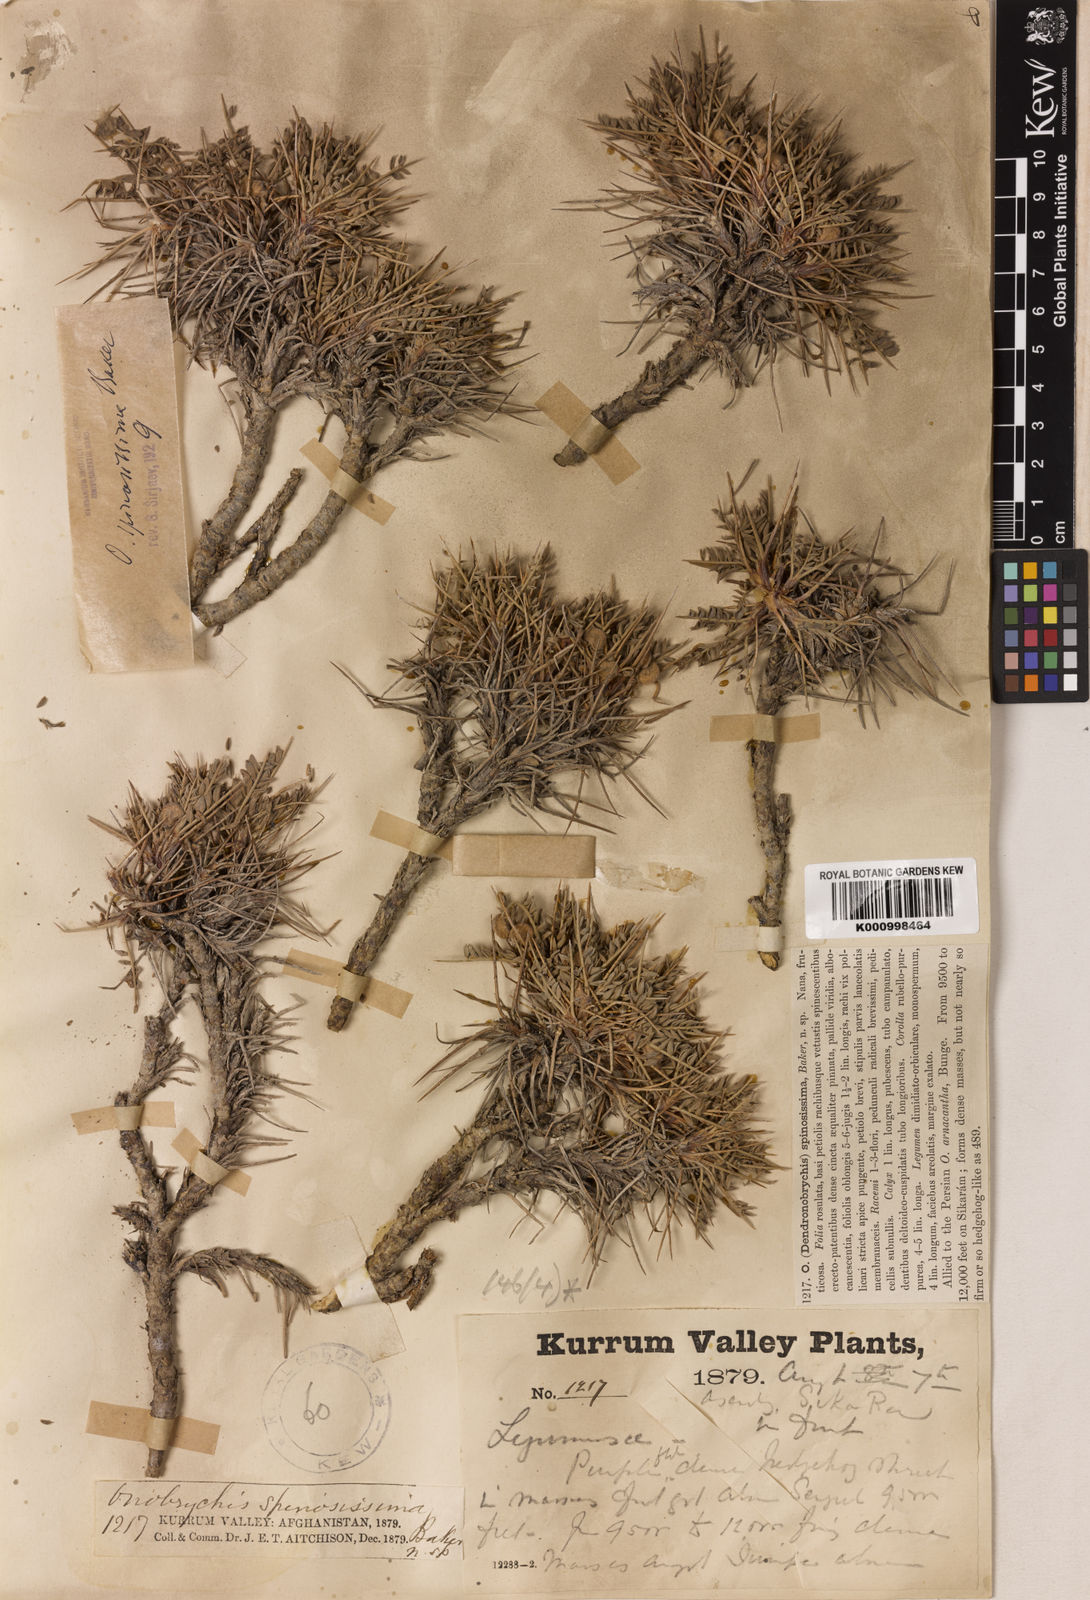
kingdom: Plantae
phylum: Tracheophyta
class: Magnoliopsida
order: Fabales
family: Fabaceae
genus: Onobrychis
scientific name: Onobrychis
